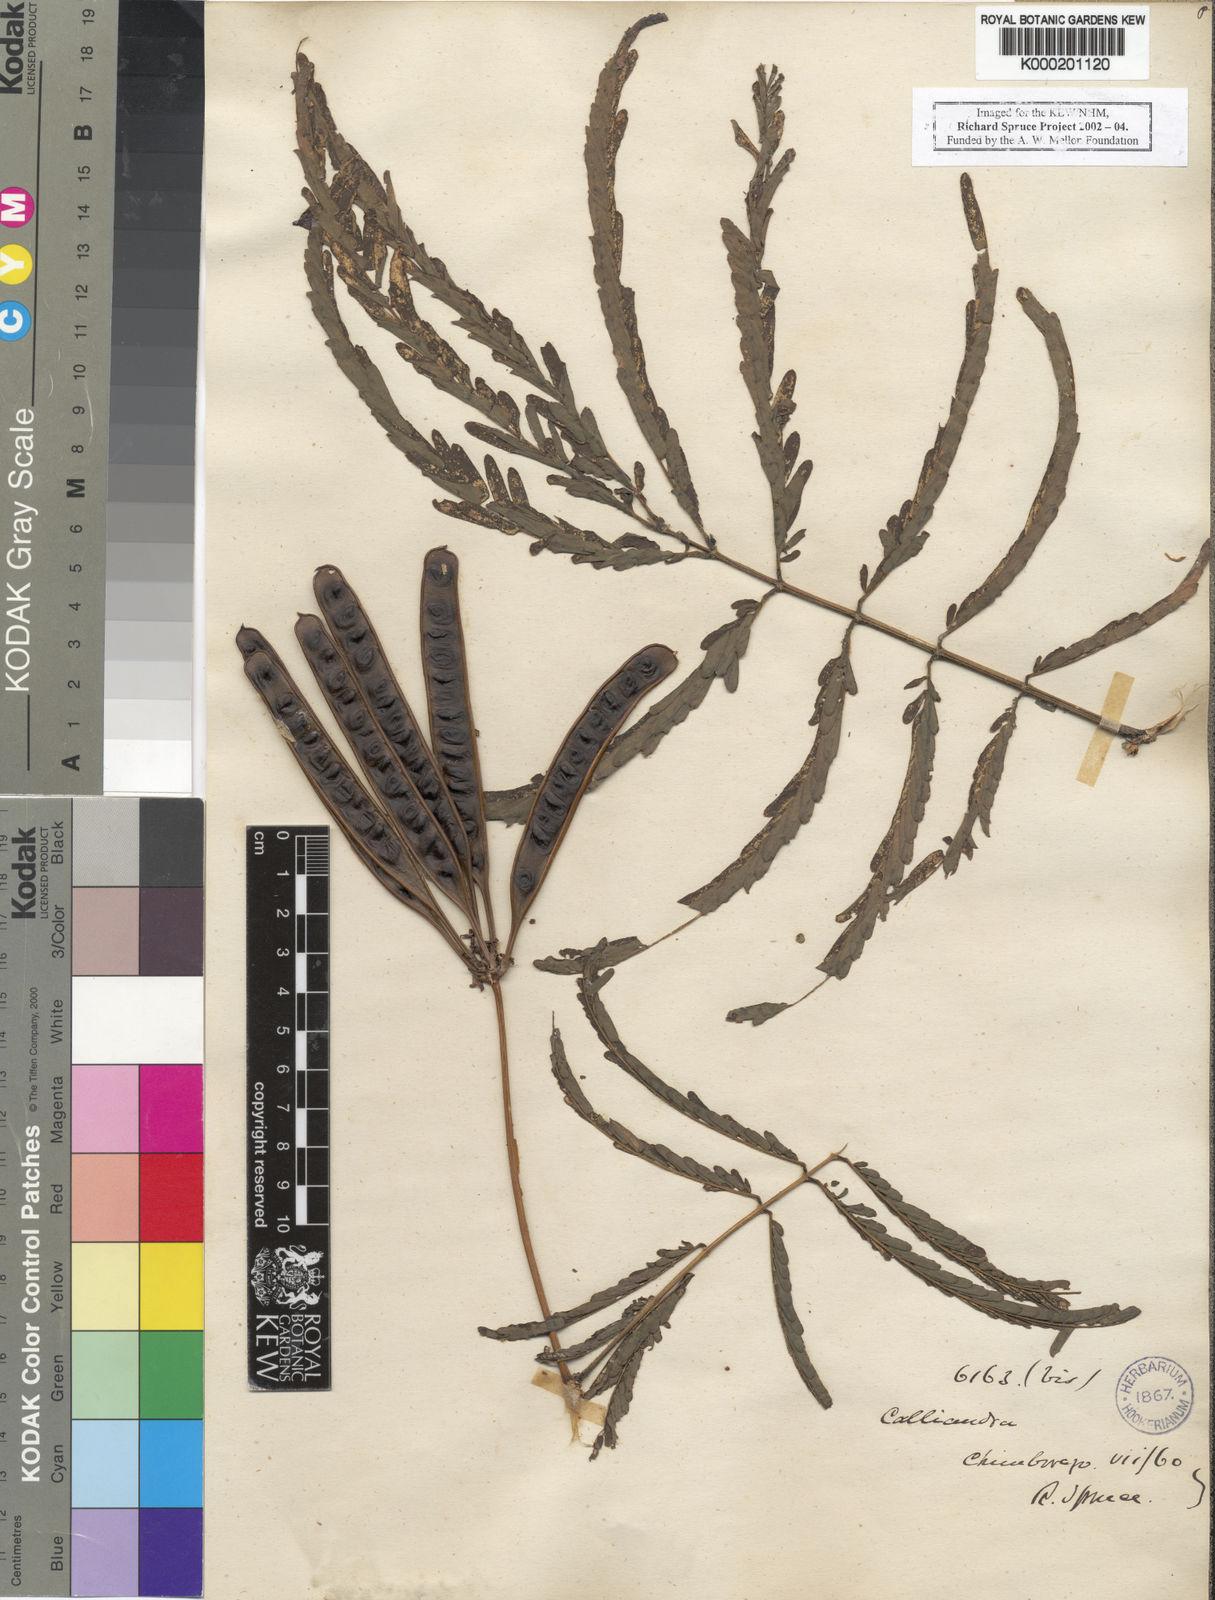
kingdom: Plantae
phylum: Tracheophyta
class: Magnoliopsida
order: Fabales
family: Fabaceae
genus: Zapoteca
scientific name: Zapoteca tetragona
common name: White calliandra
